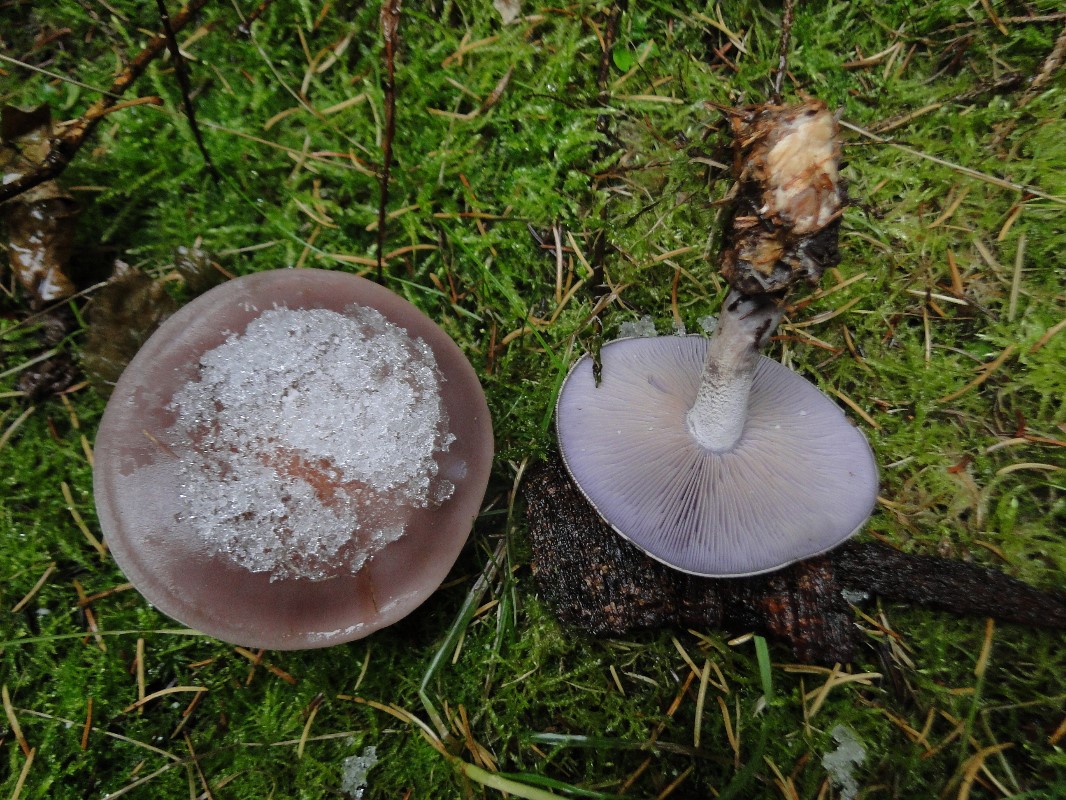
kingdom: Fungi
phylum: Basidiomycota
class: Agaricomycetes
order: Agaricales
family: Tricholomataceae
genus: Lepista
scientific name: Lepista nuda
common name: violet hekseringshat
